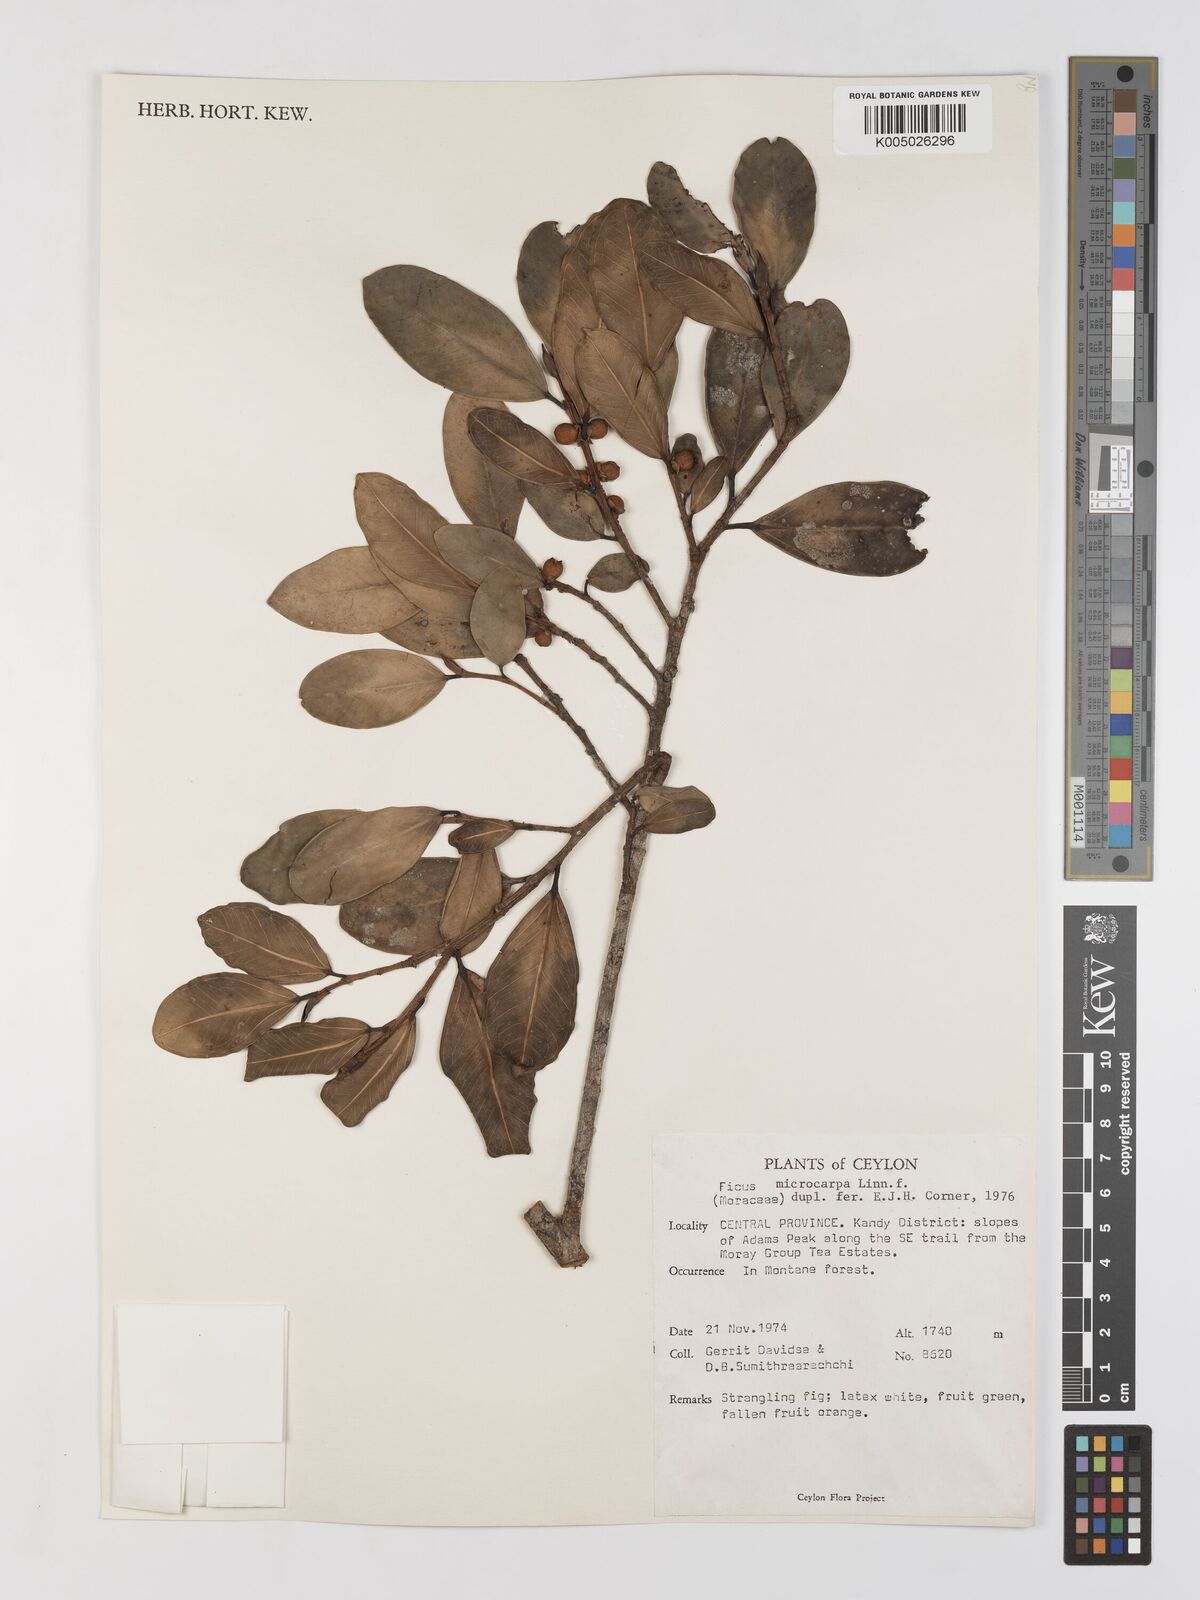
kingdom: Plantae
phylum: Tracheophyta
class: Magnoliopsida
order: Rosales
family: Moraceae
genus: Ficus
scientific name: Ficus
